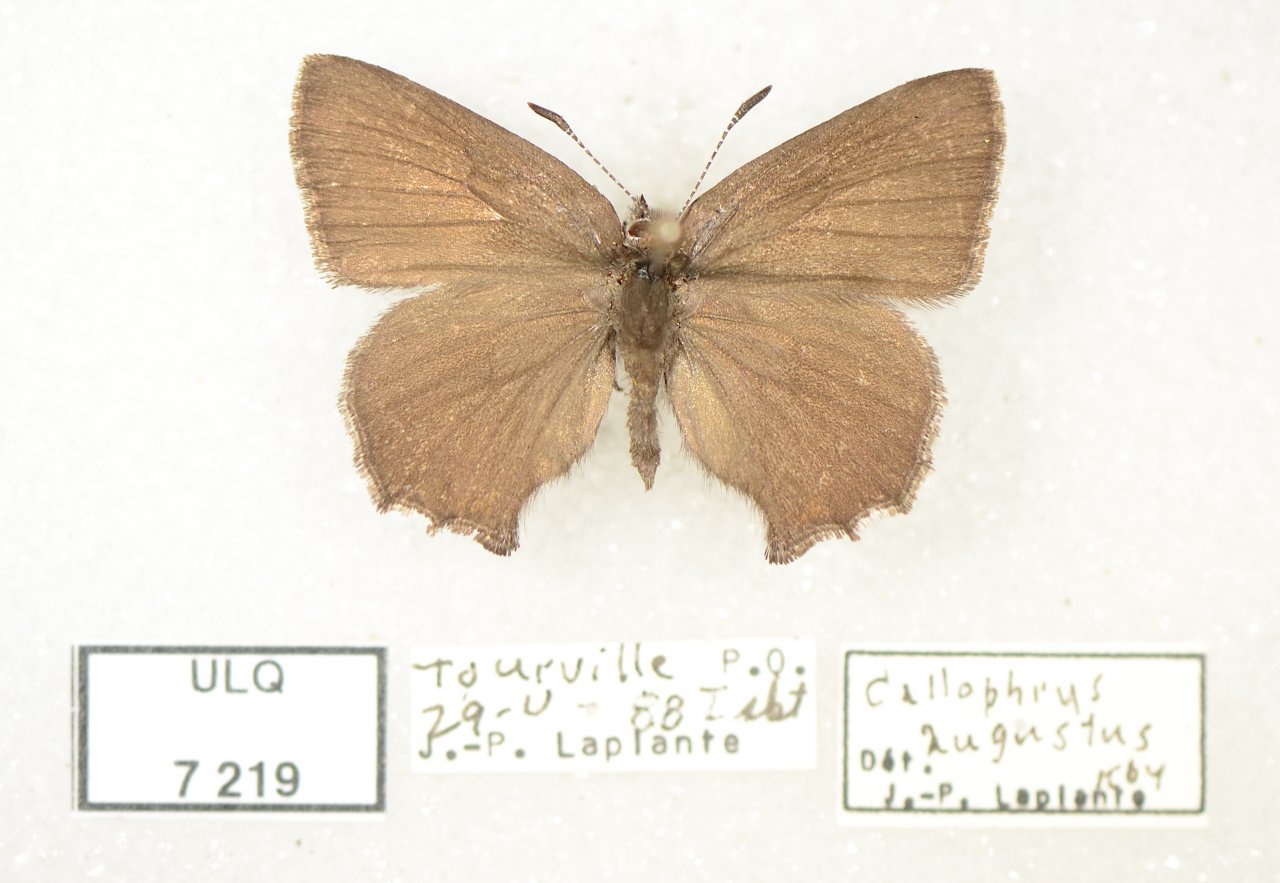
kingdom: Animalia
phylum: Arthropoda
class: Insecta
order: Lepidoptera
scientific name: Lepidoptera
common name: Butterflies
